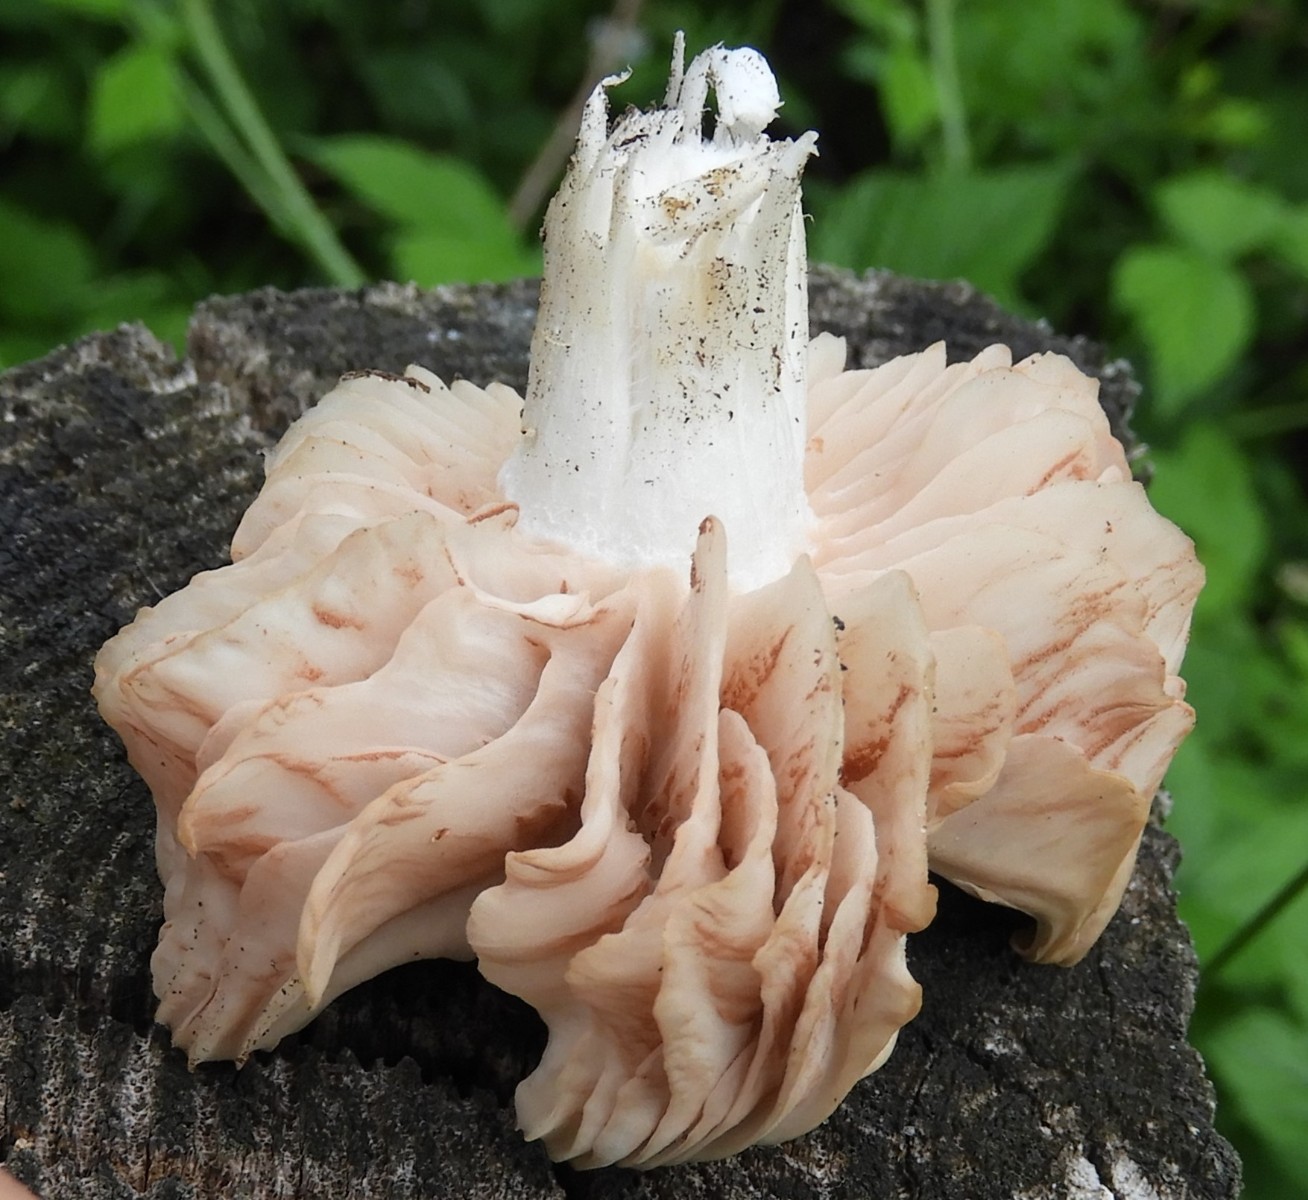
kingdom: Fungi
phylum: Basidiomycota
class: Agaricomycetes
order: Agaricales
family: Entolomataceae
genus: Entoloma
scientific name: Entoloma
